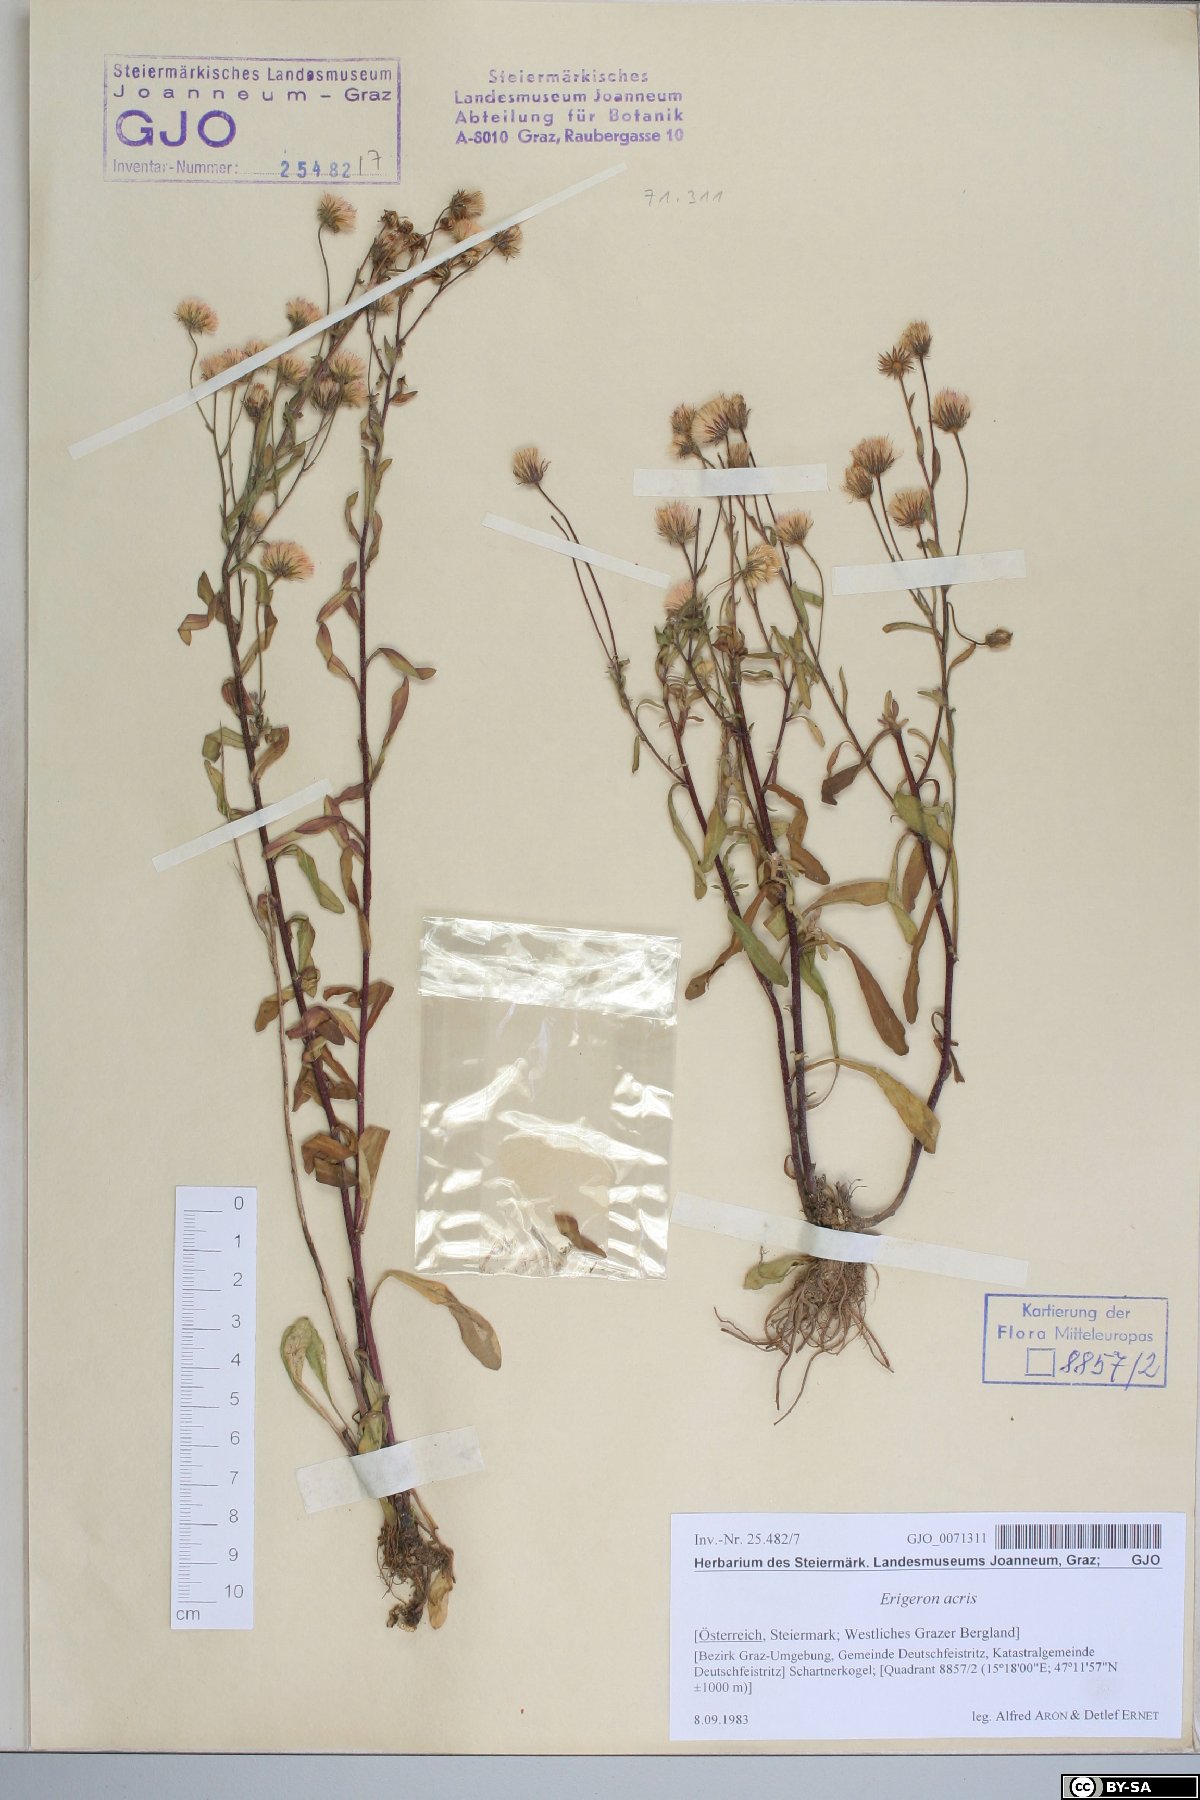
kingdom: Plantae
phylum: Tracheophyta
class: Magnoliopsida
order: Asterales
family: Asteraceae
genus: Erigeron
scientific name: Erigeron muralis
